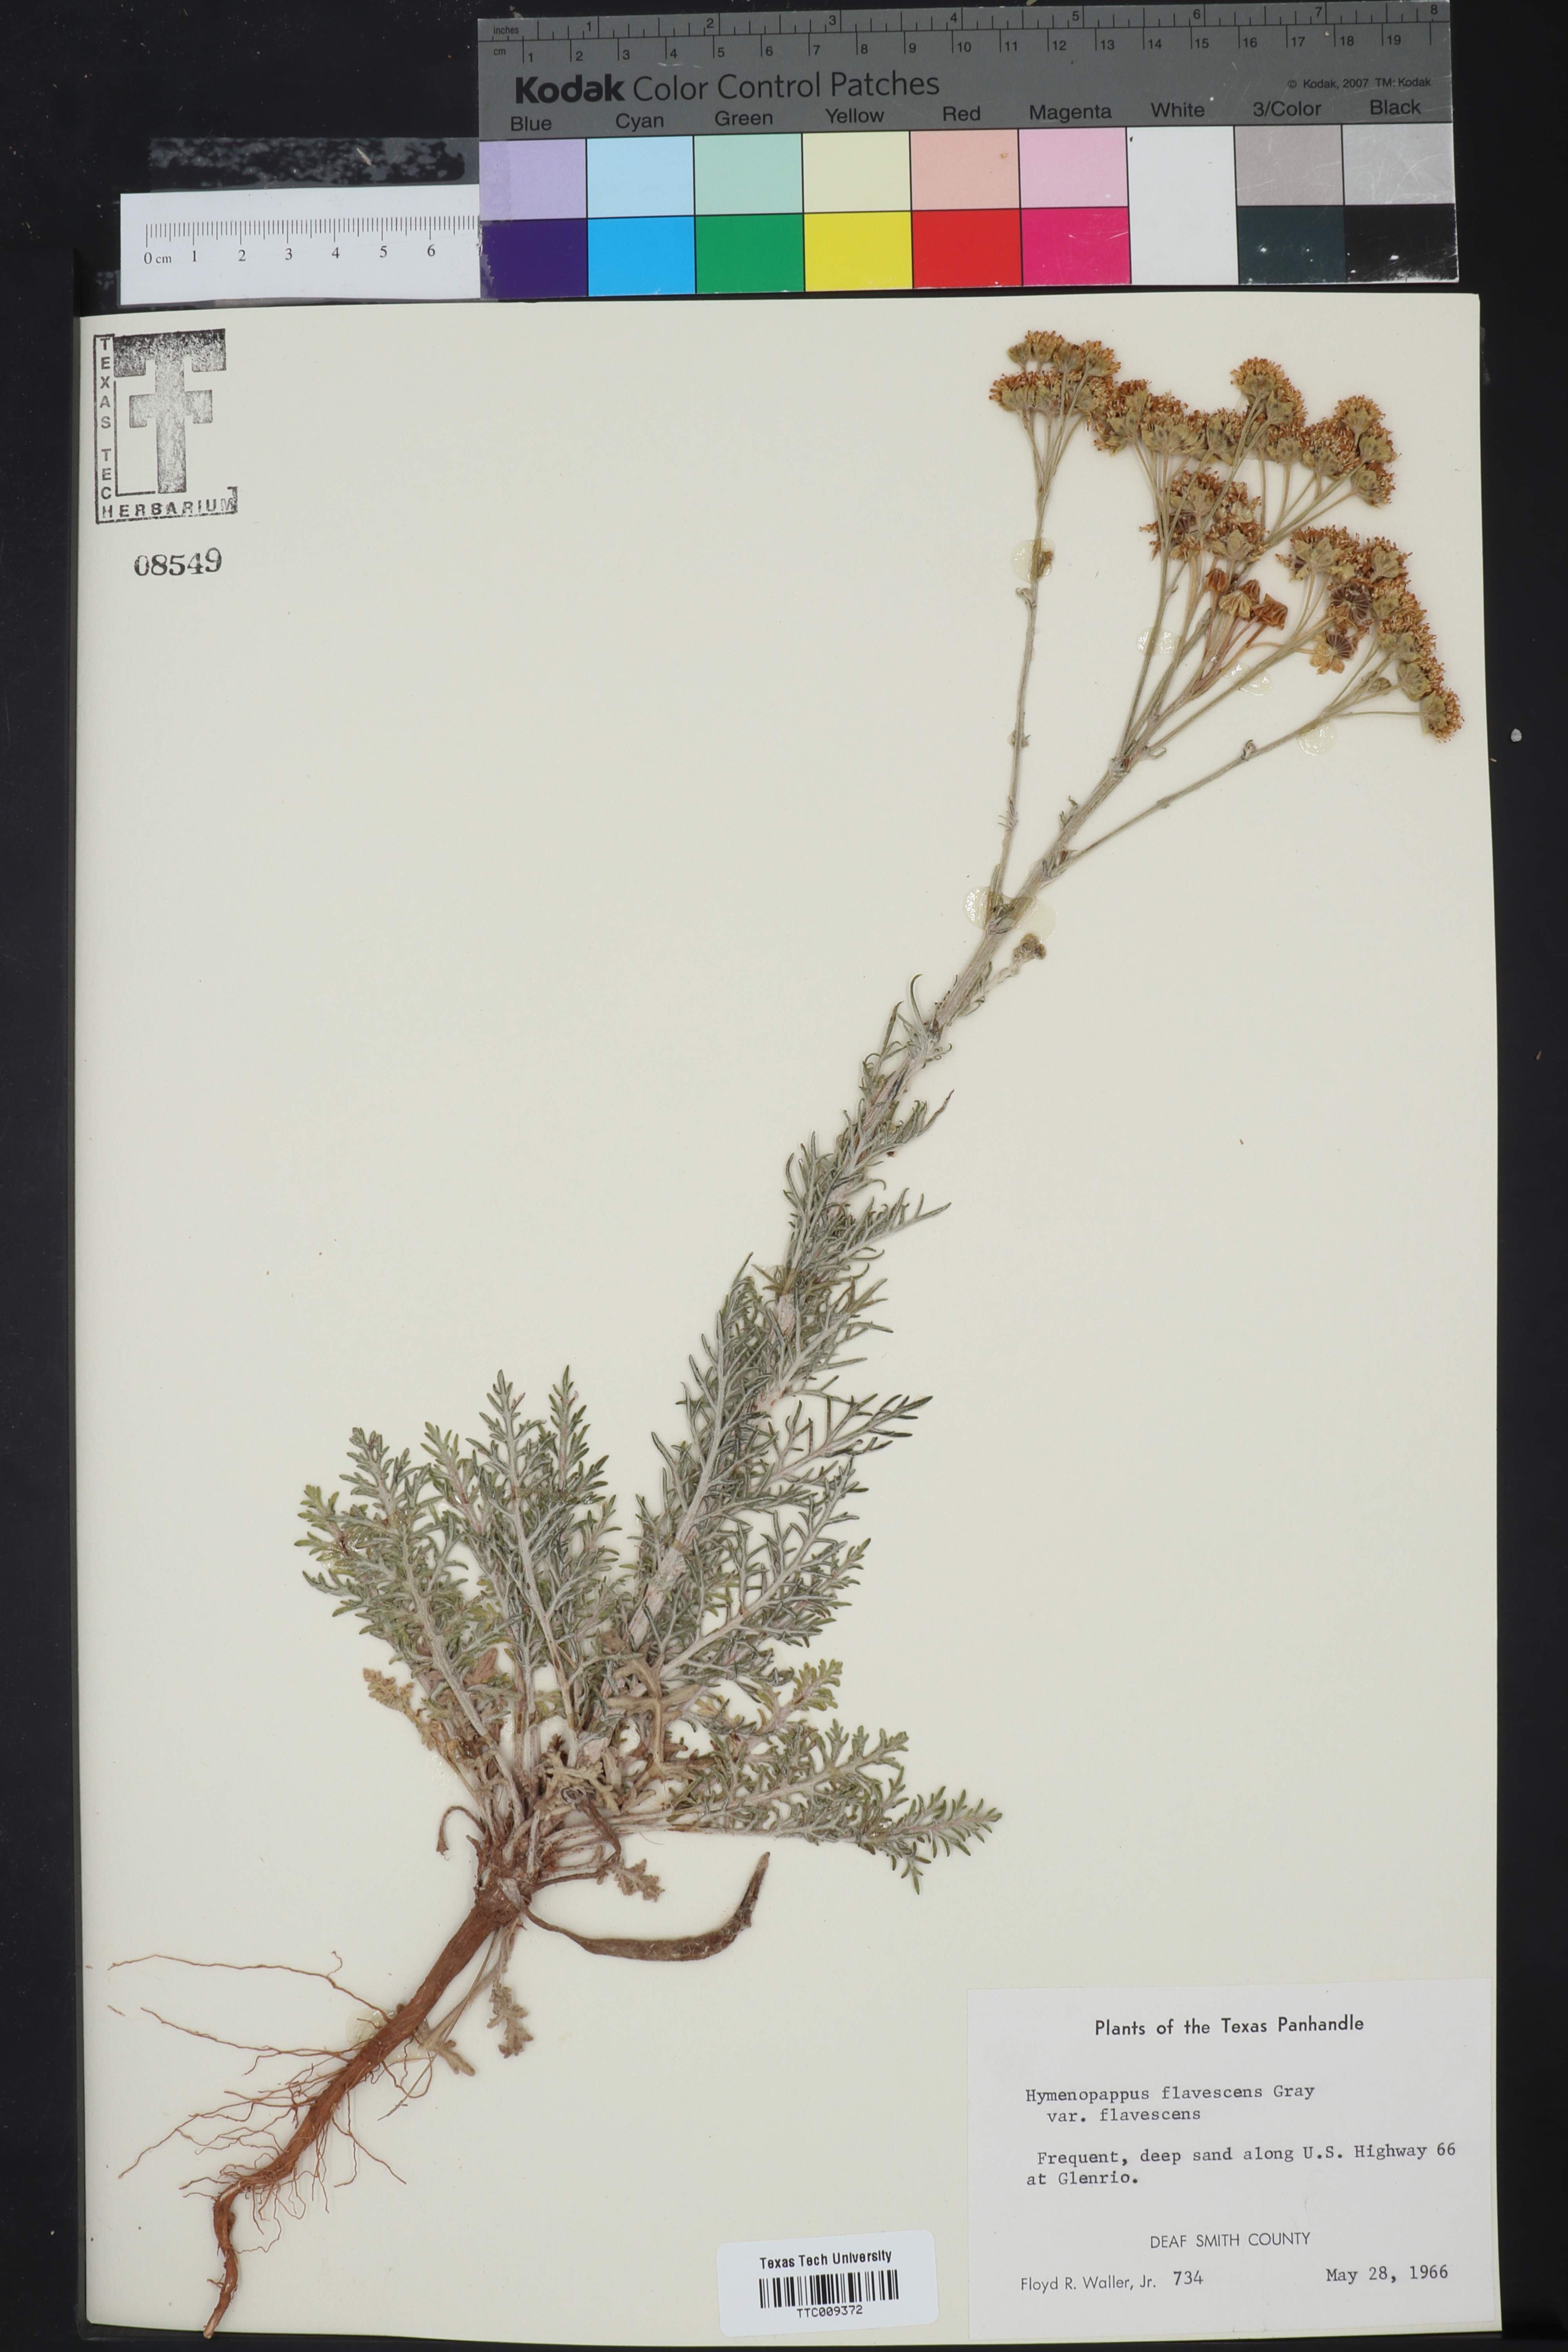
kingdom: Plantae
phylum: Tracheophyta
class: Magnoliopsida
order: Asterales
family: Asteraceae
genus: Hymenopappus
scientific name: Hymenopappus flavescens
